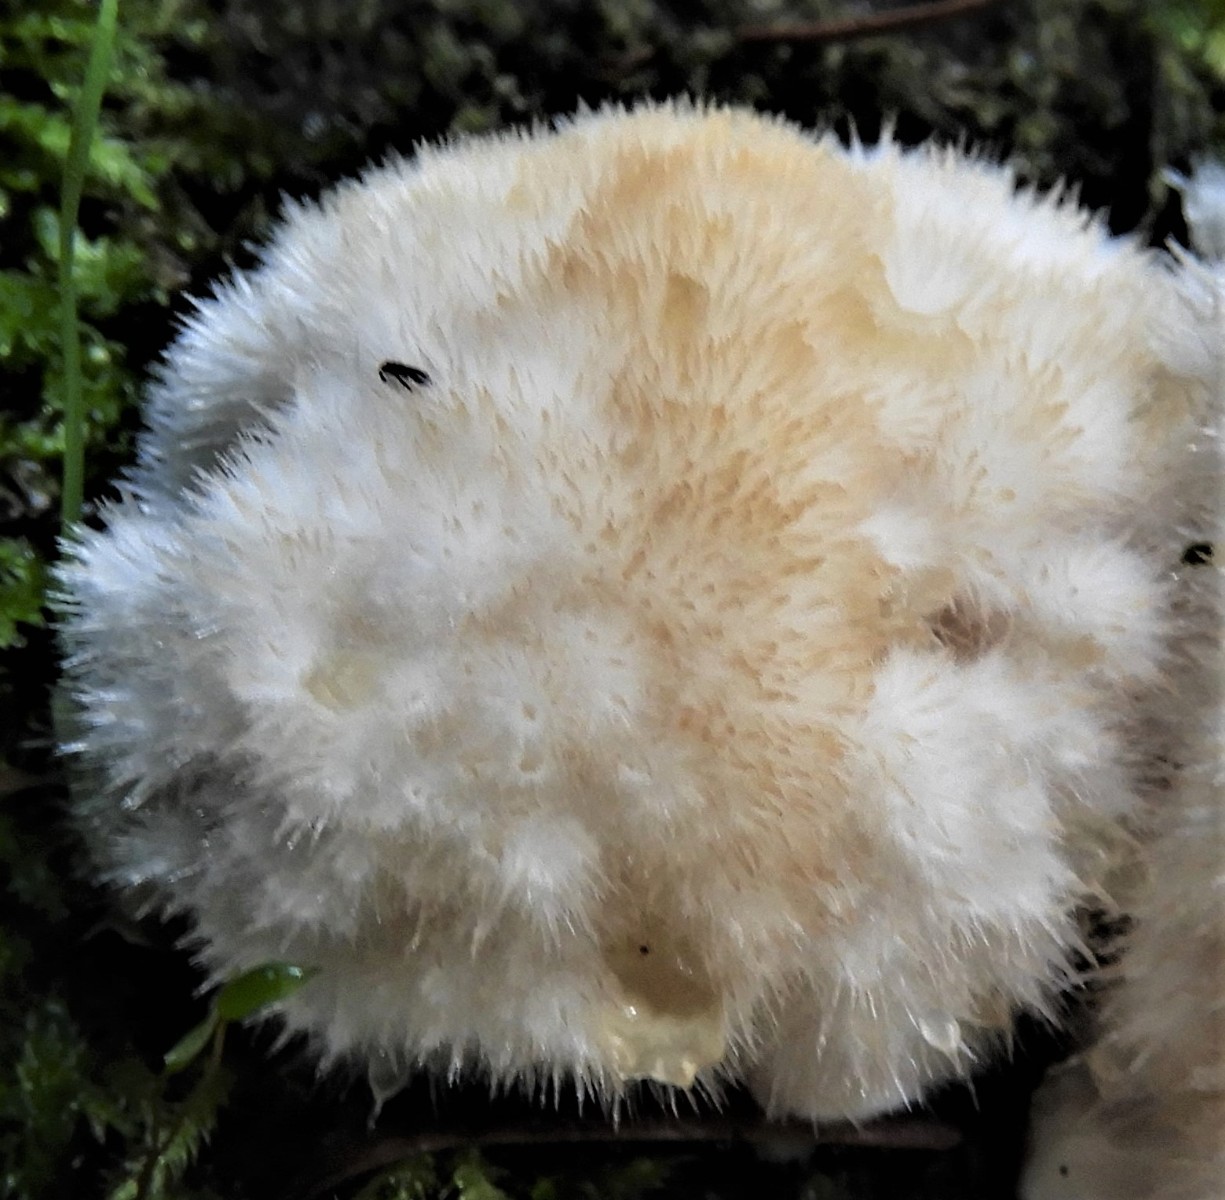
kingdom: Fungi
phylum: Basidiomycota
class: Agaricomycetes
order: Polyporales
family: Dacryobolaceae
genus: Postia
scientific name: Postia ptychogaster
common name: støvende kødporesvamp
